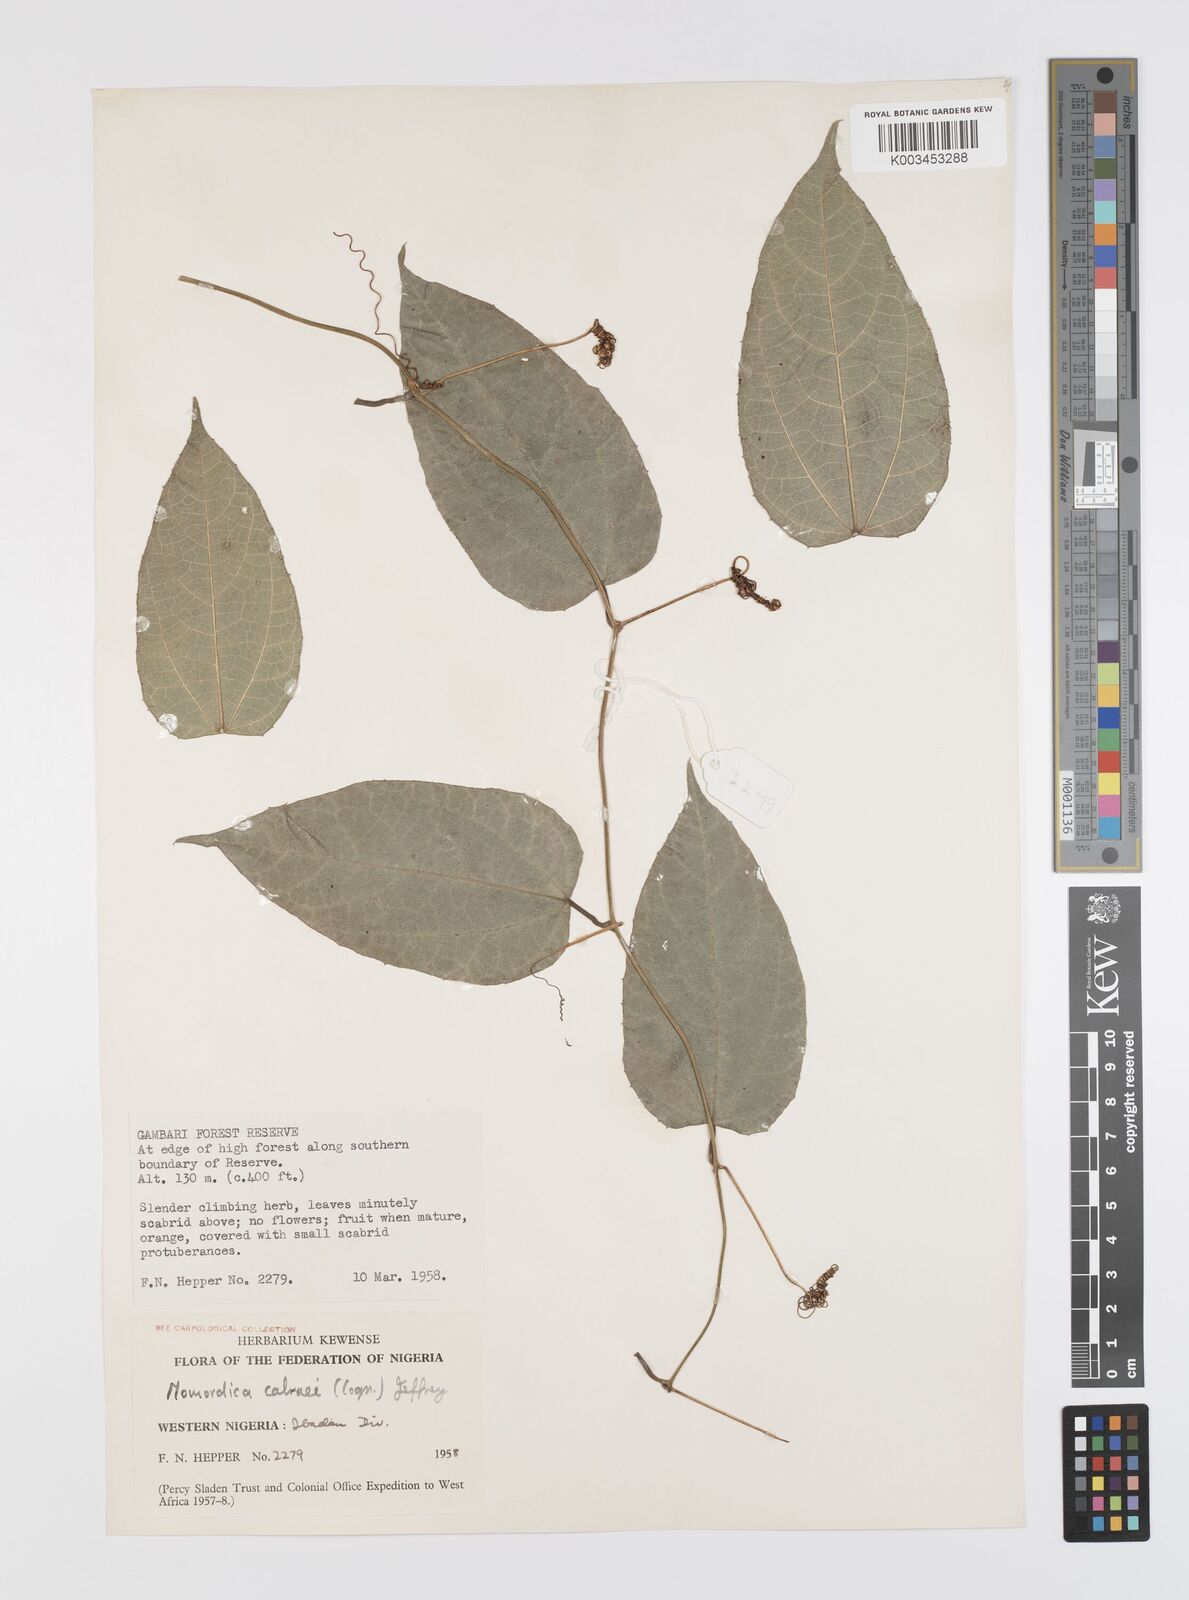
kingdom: Plantae
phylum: Tracheophyta
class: Magnoliopsida
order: Cucurbitales
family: Cucurbitaceae
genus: Momordica
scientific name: Momordica cabrae
